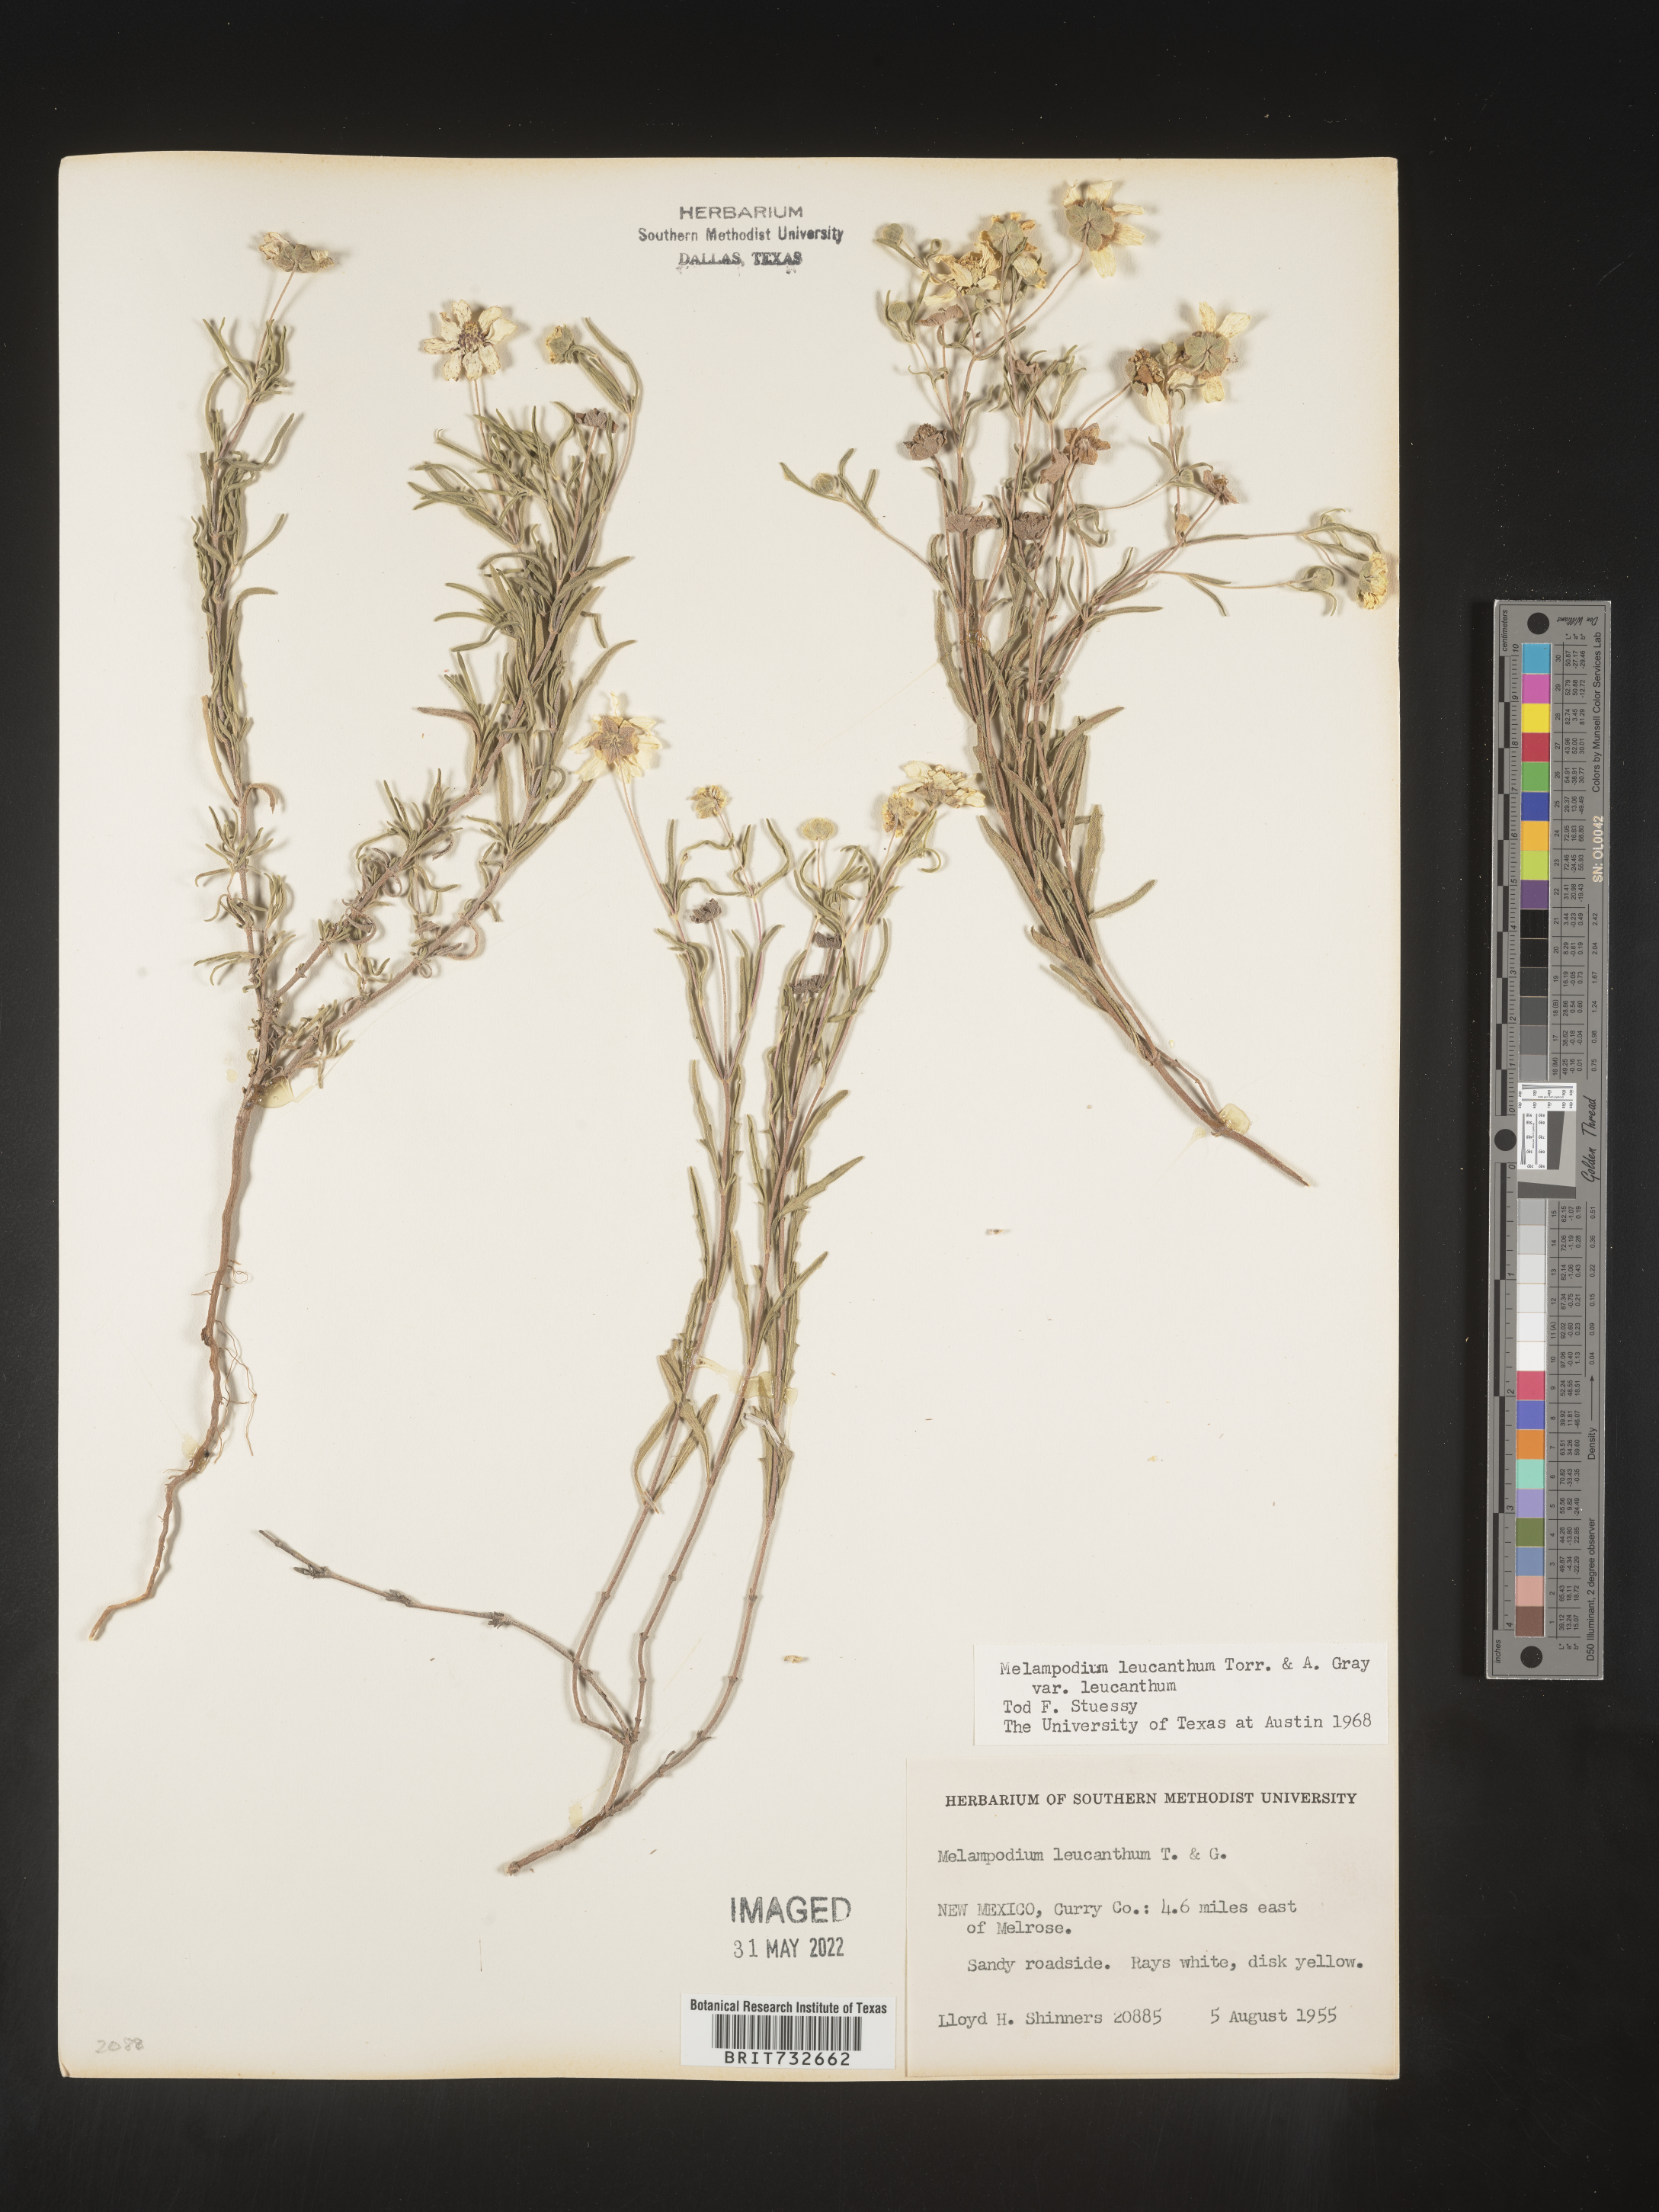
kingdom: Plantae
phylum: Tracheophyta
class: Magnoliopsida
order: Asterales
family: Asteraceae
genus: Melampodium
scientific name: Melampodium leucanthum
